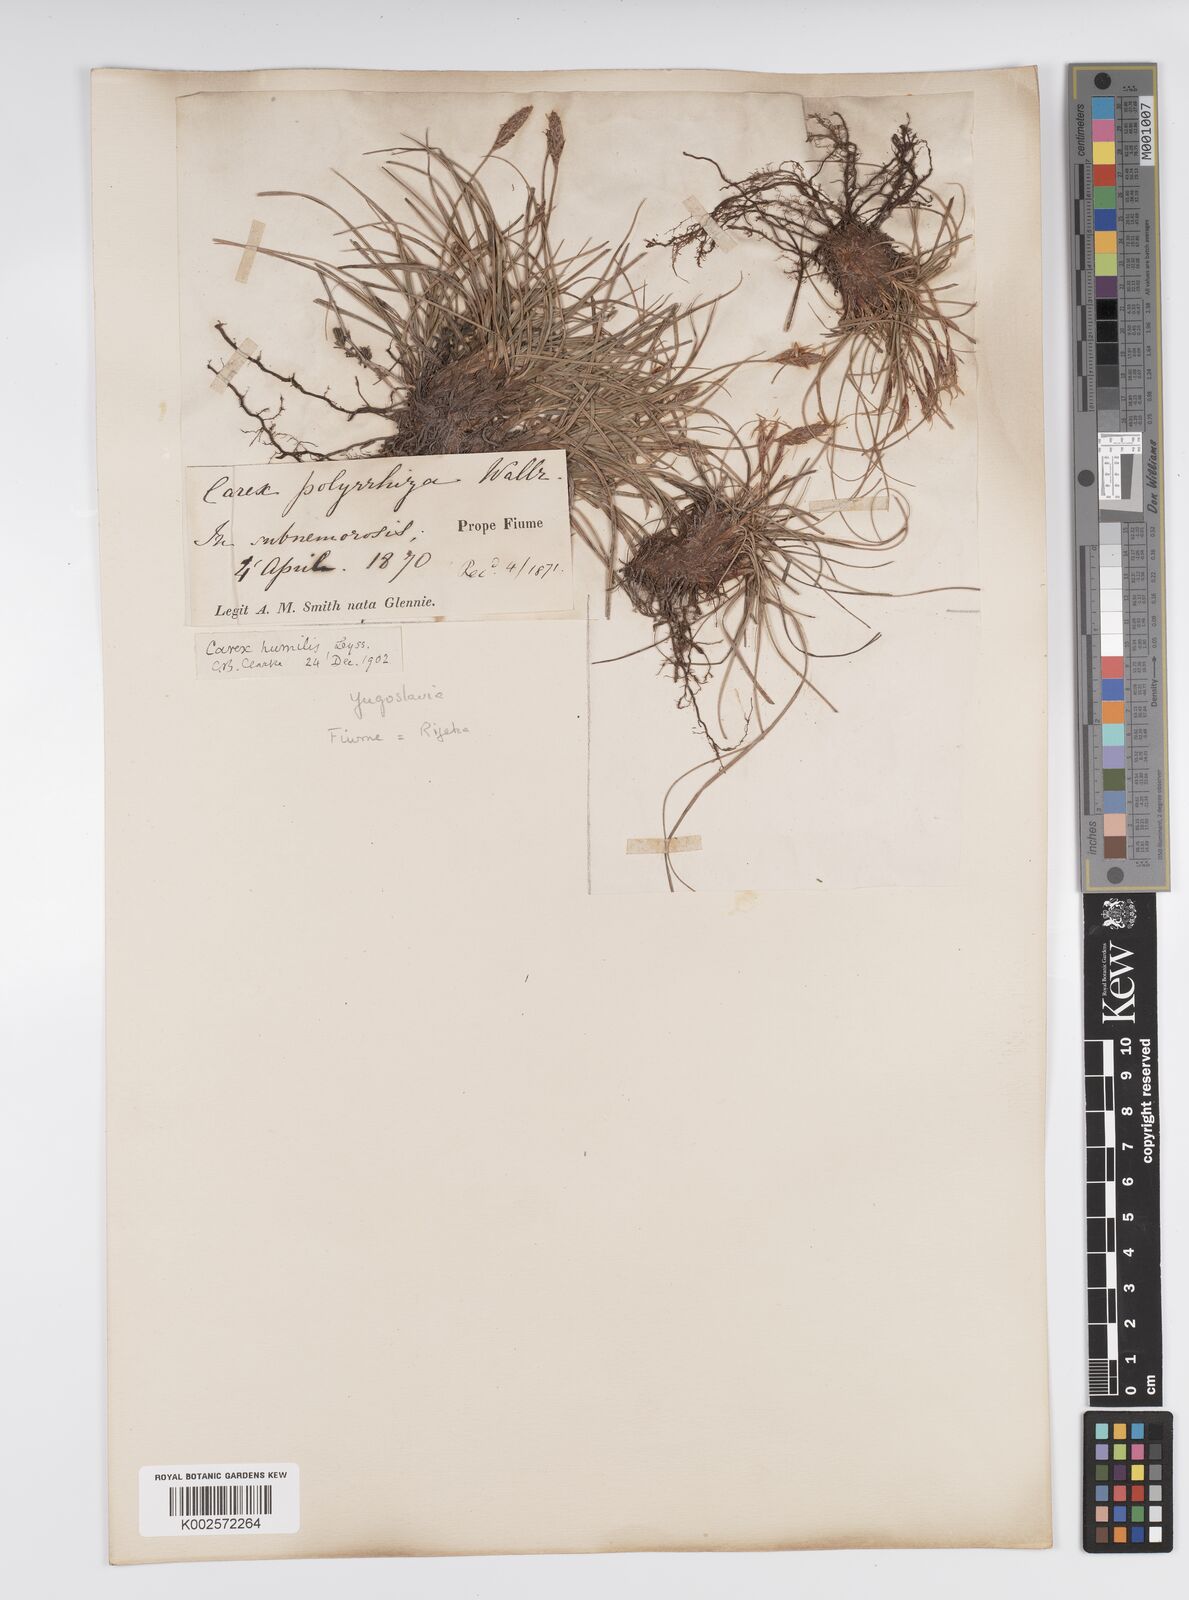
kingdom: Plantae
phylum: Tracheophyta
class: Liliopsida
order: Poales
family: Cyperaceae
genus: Carex
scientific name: Carex humilis
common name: Dwarf sedge
